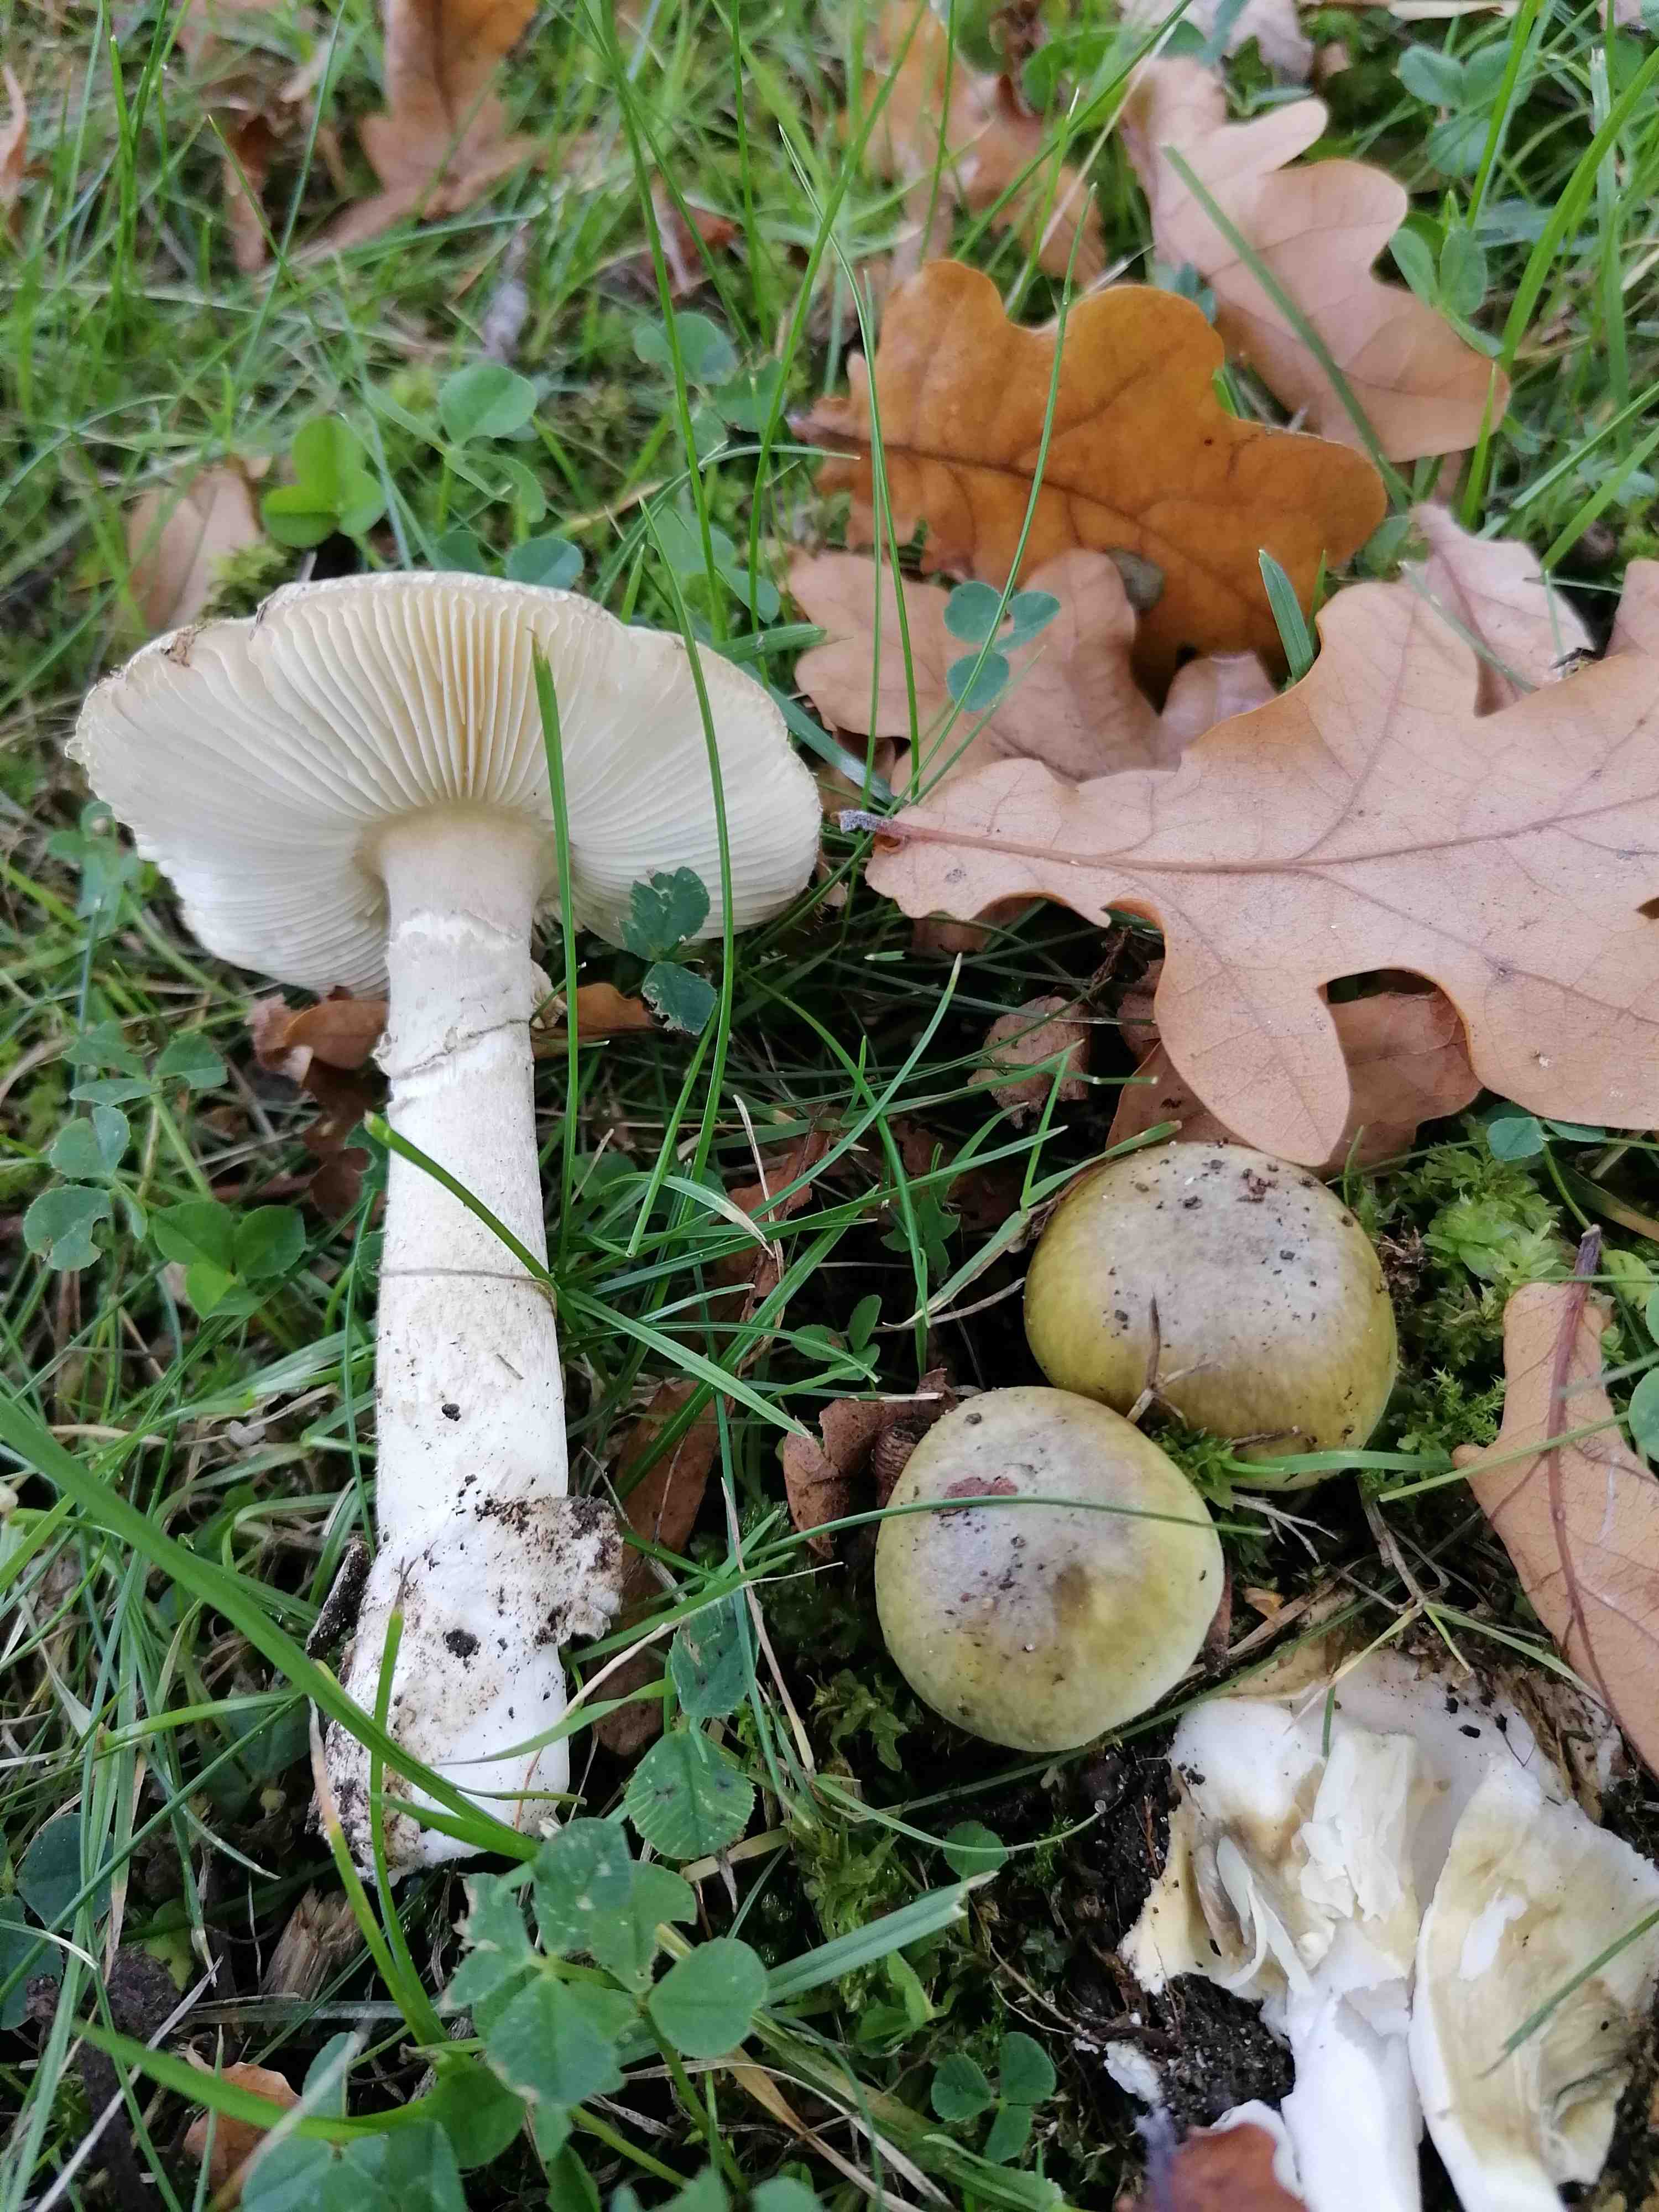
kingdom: Fungi
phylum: Basidiomycota
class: Agaricomycetes
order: Agaricales
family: Amanitaceae
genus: Amanita
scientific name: Amanita phalloides
